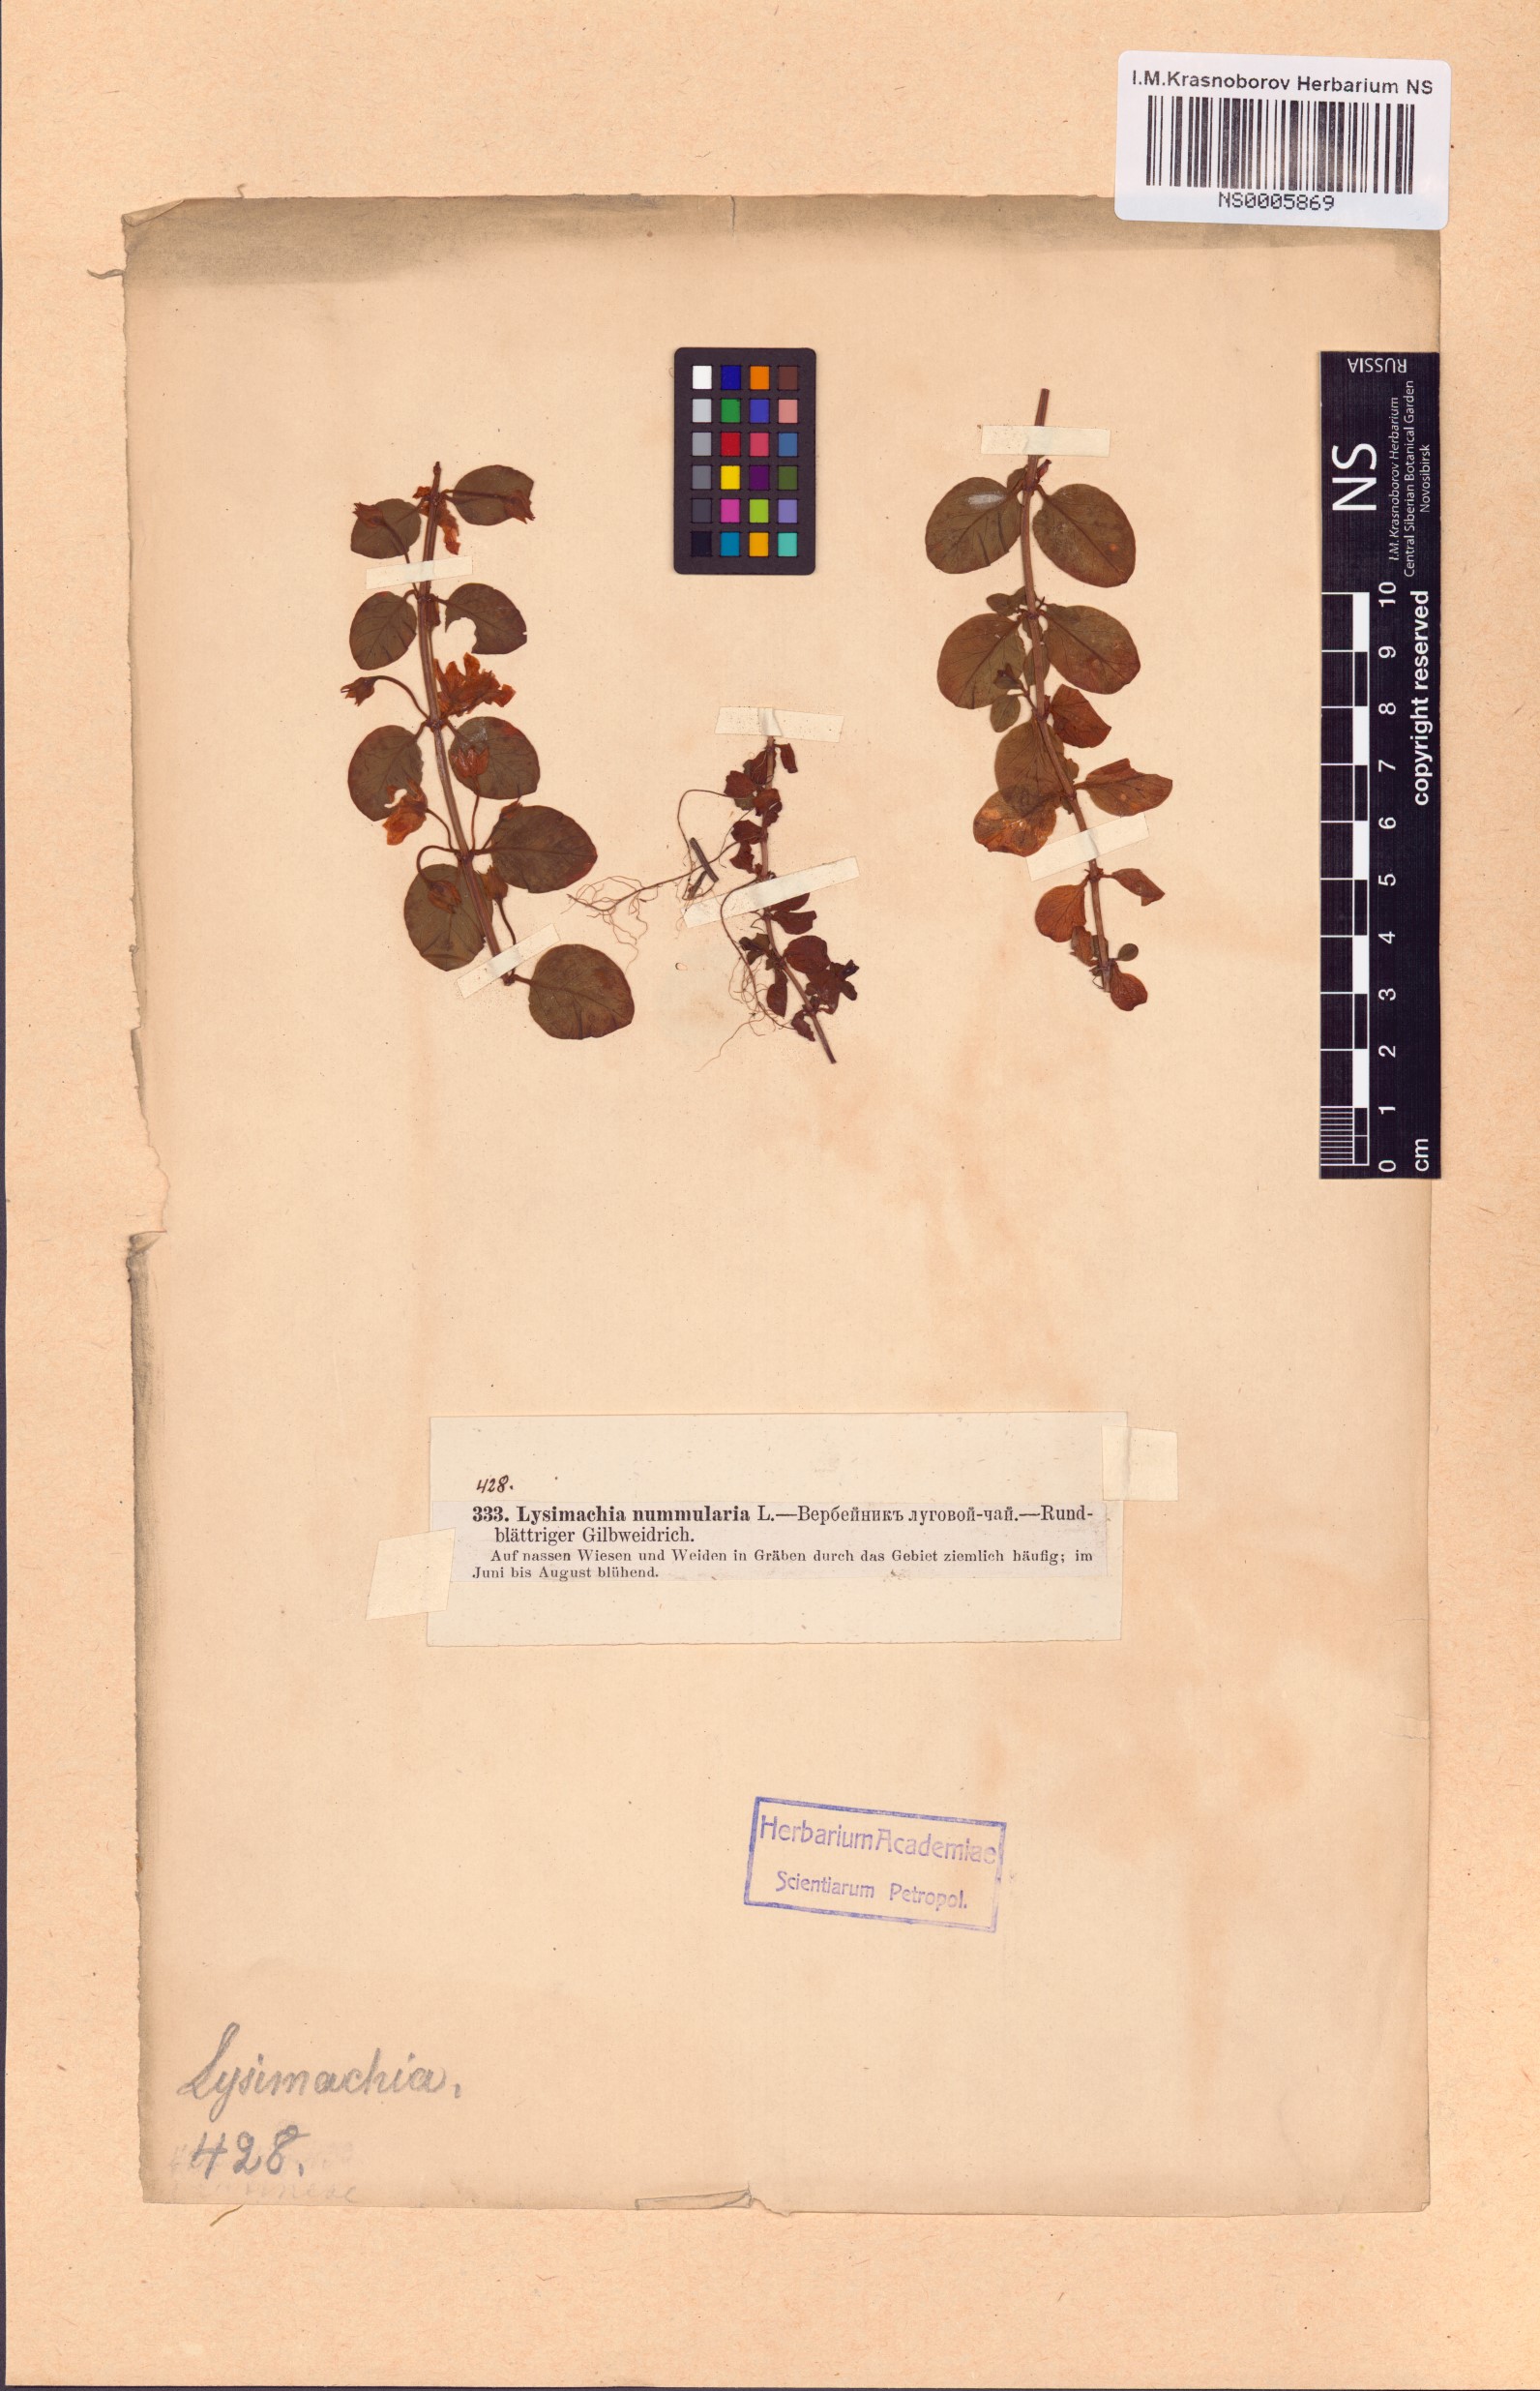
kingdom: Plantae
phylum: Tracheophyta
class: Magnoliopsida
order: Ericales
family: Primulaceae
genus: Lysimachia
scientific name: Lysimachia nummularia
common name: Moneywort
